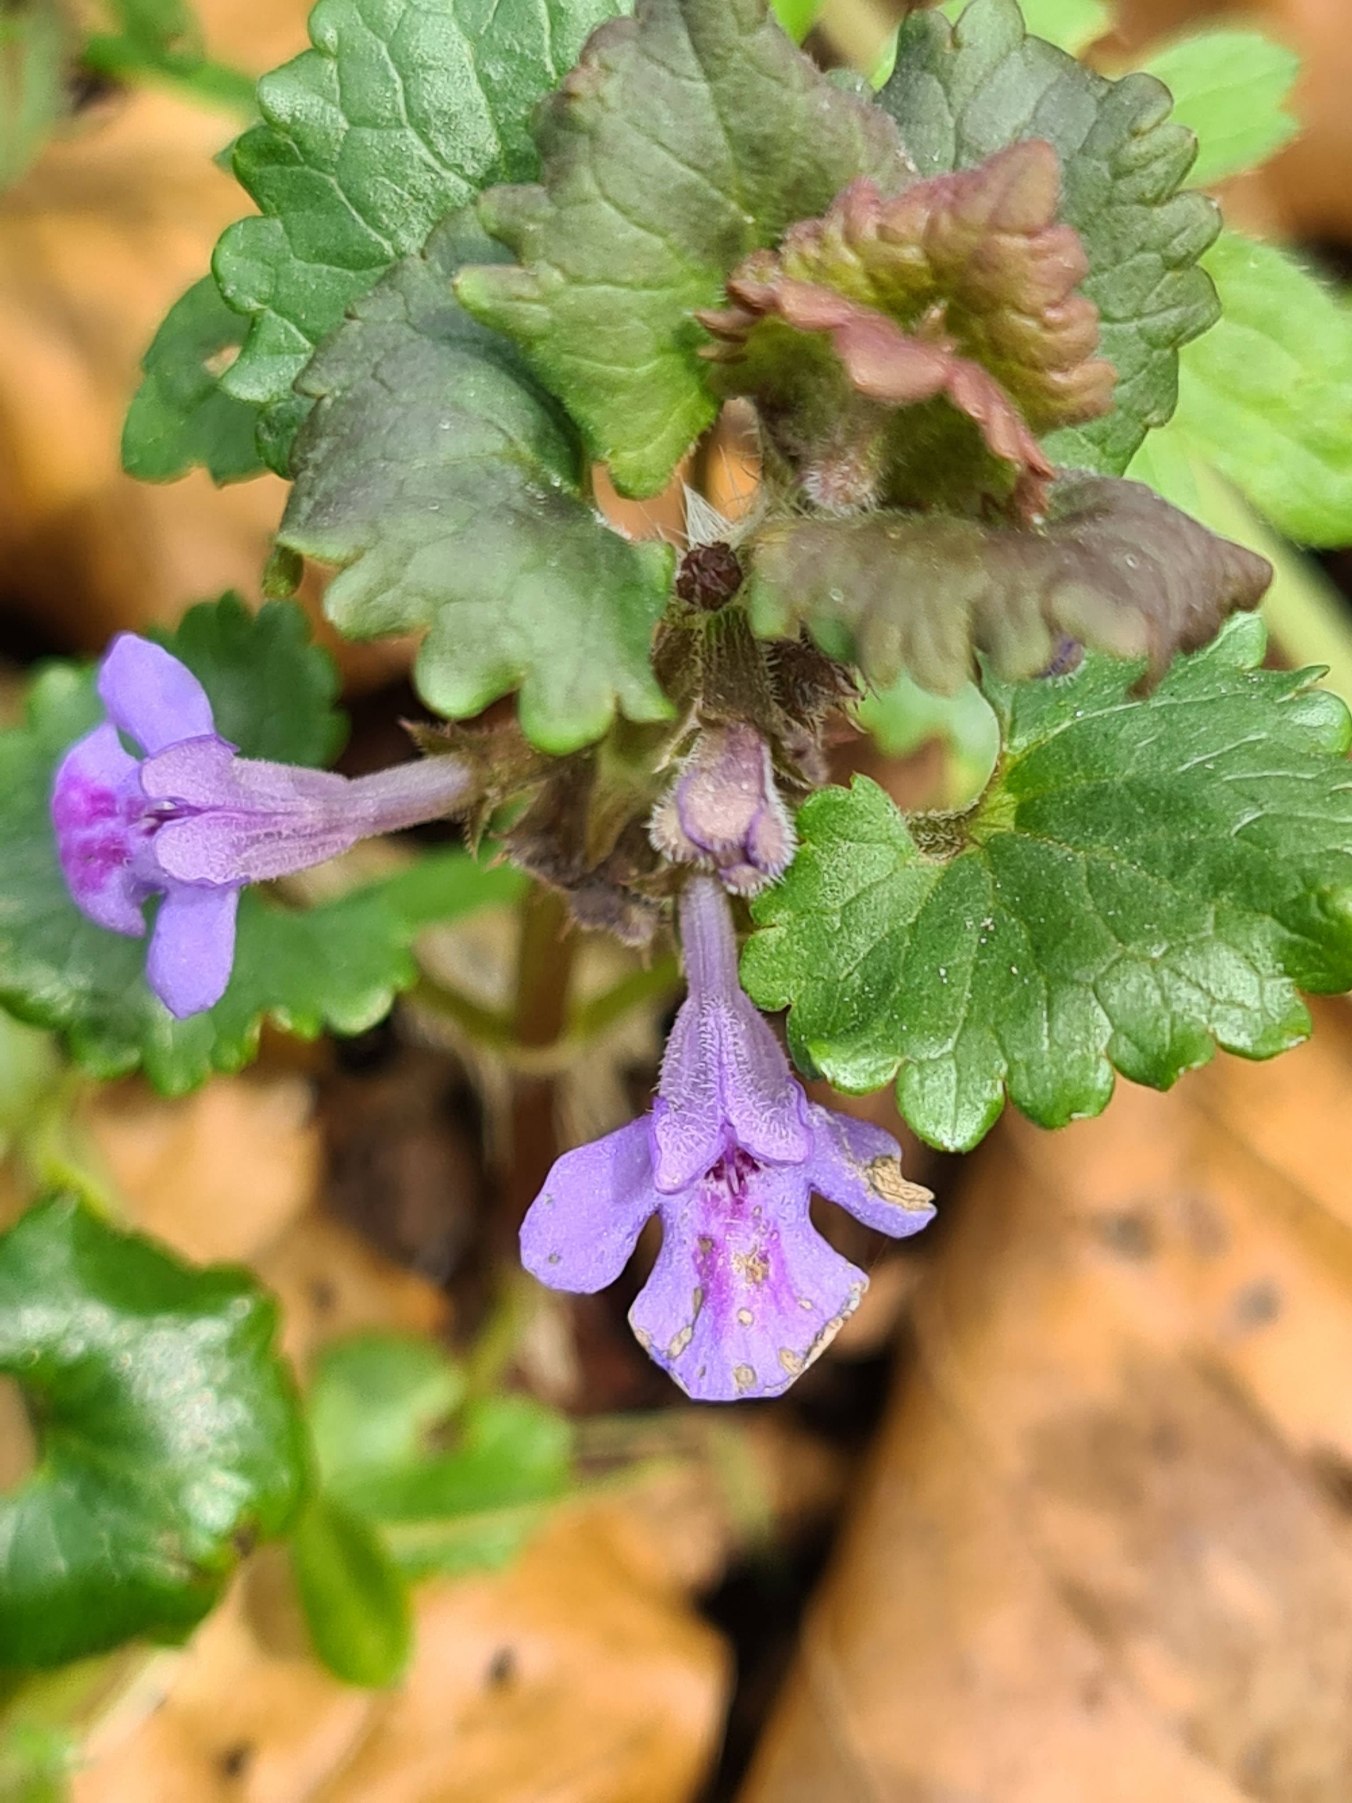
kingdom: Plantae
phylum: Tracheophyta
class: Magnoliopsida
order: Lamiales
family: Lamiaceae
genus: Glechoma
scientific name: Glechoma hederacea
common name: Korsknap
